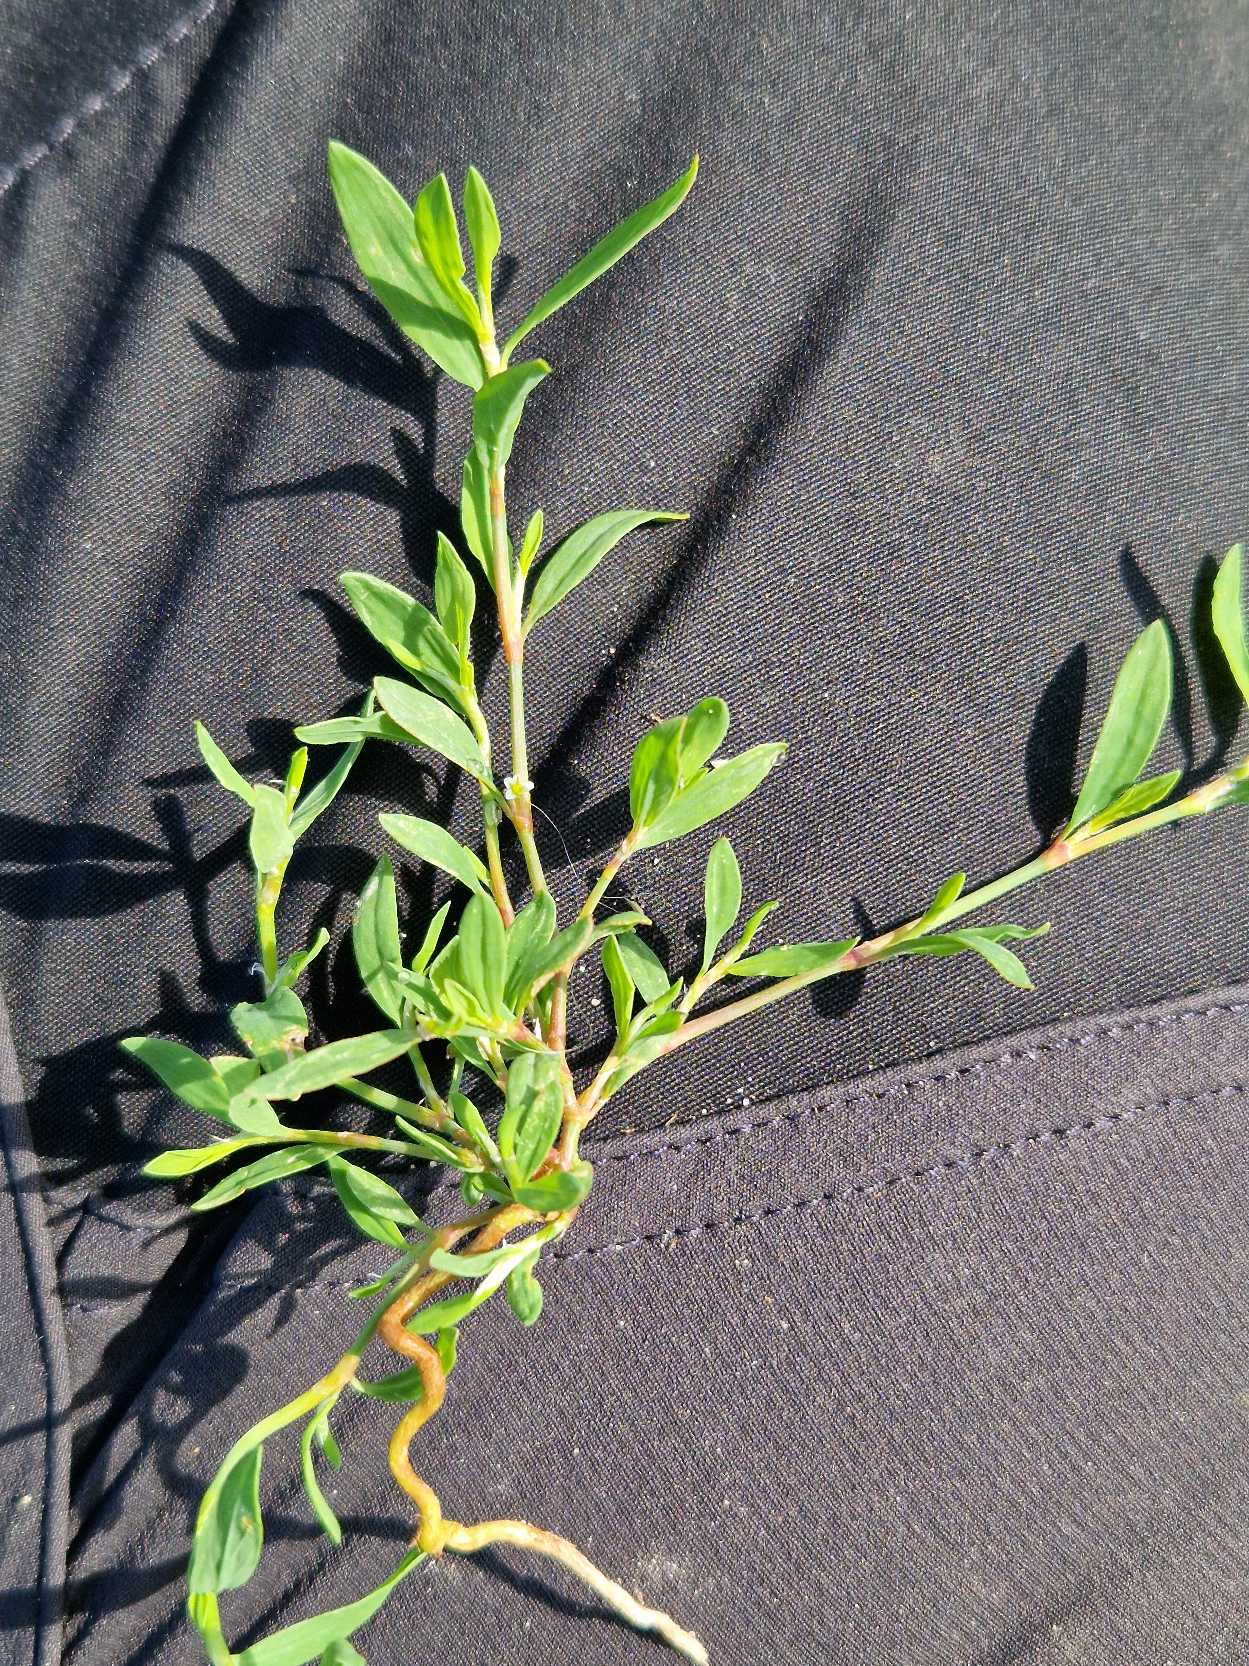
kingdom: Plantae
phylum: Tracheophyta
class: Magnoliopsida
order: Caryophyllales
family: Polygonaceae
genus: Polygonum
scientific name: Polygonum aviculare
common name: Vej-pileurt
